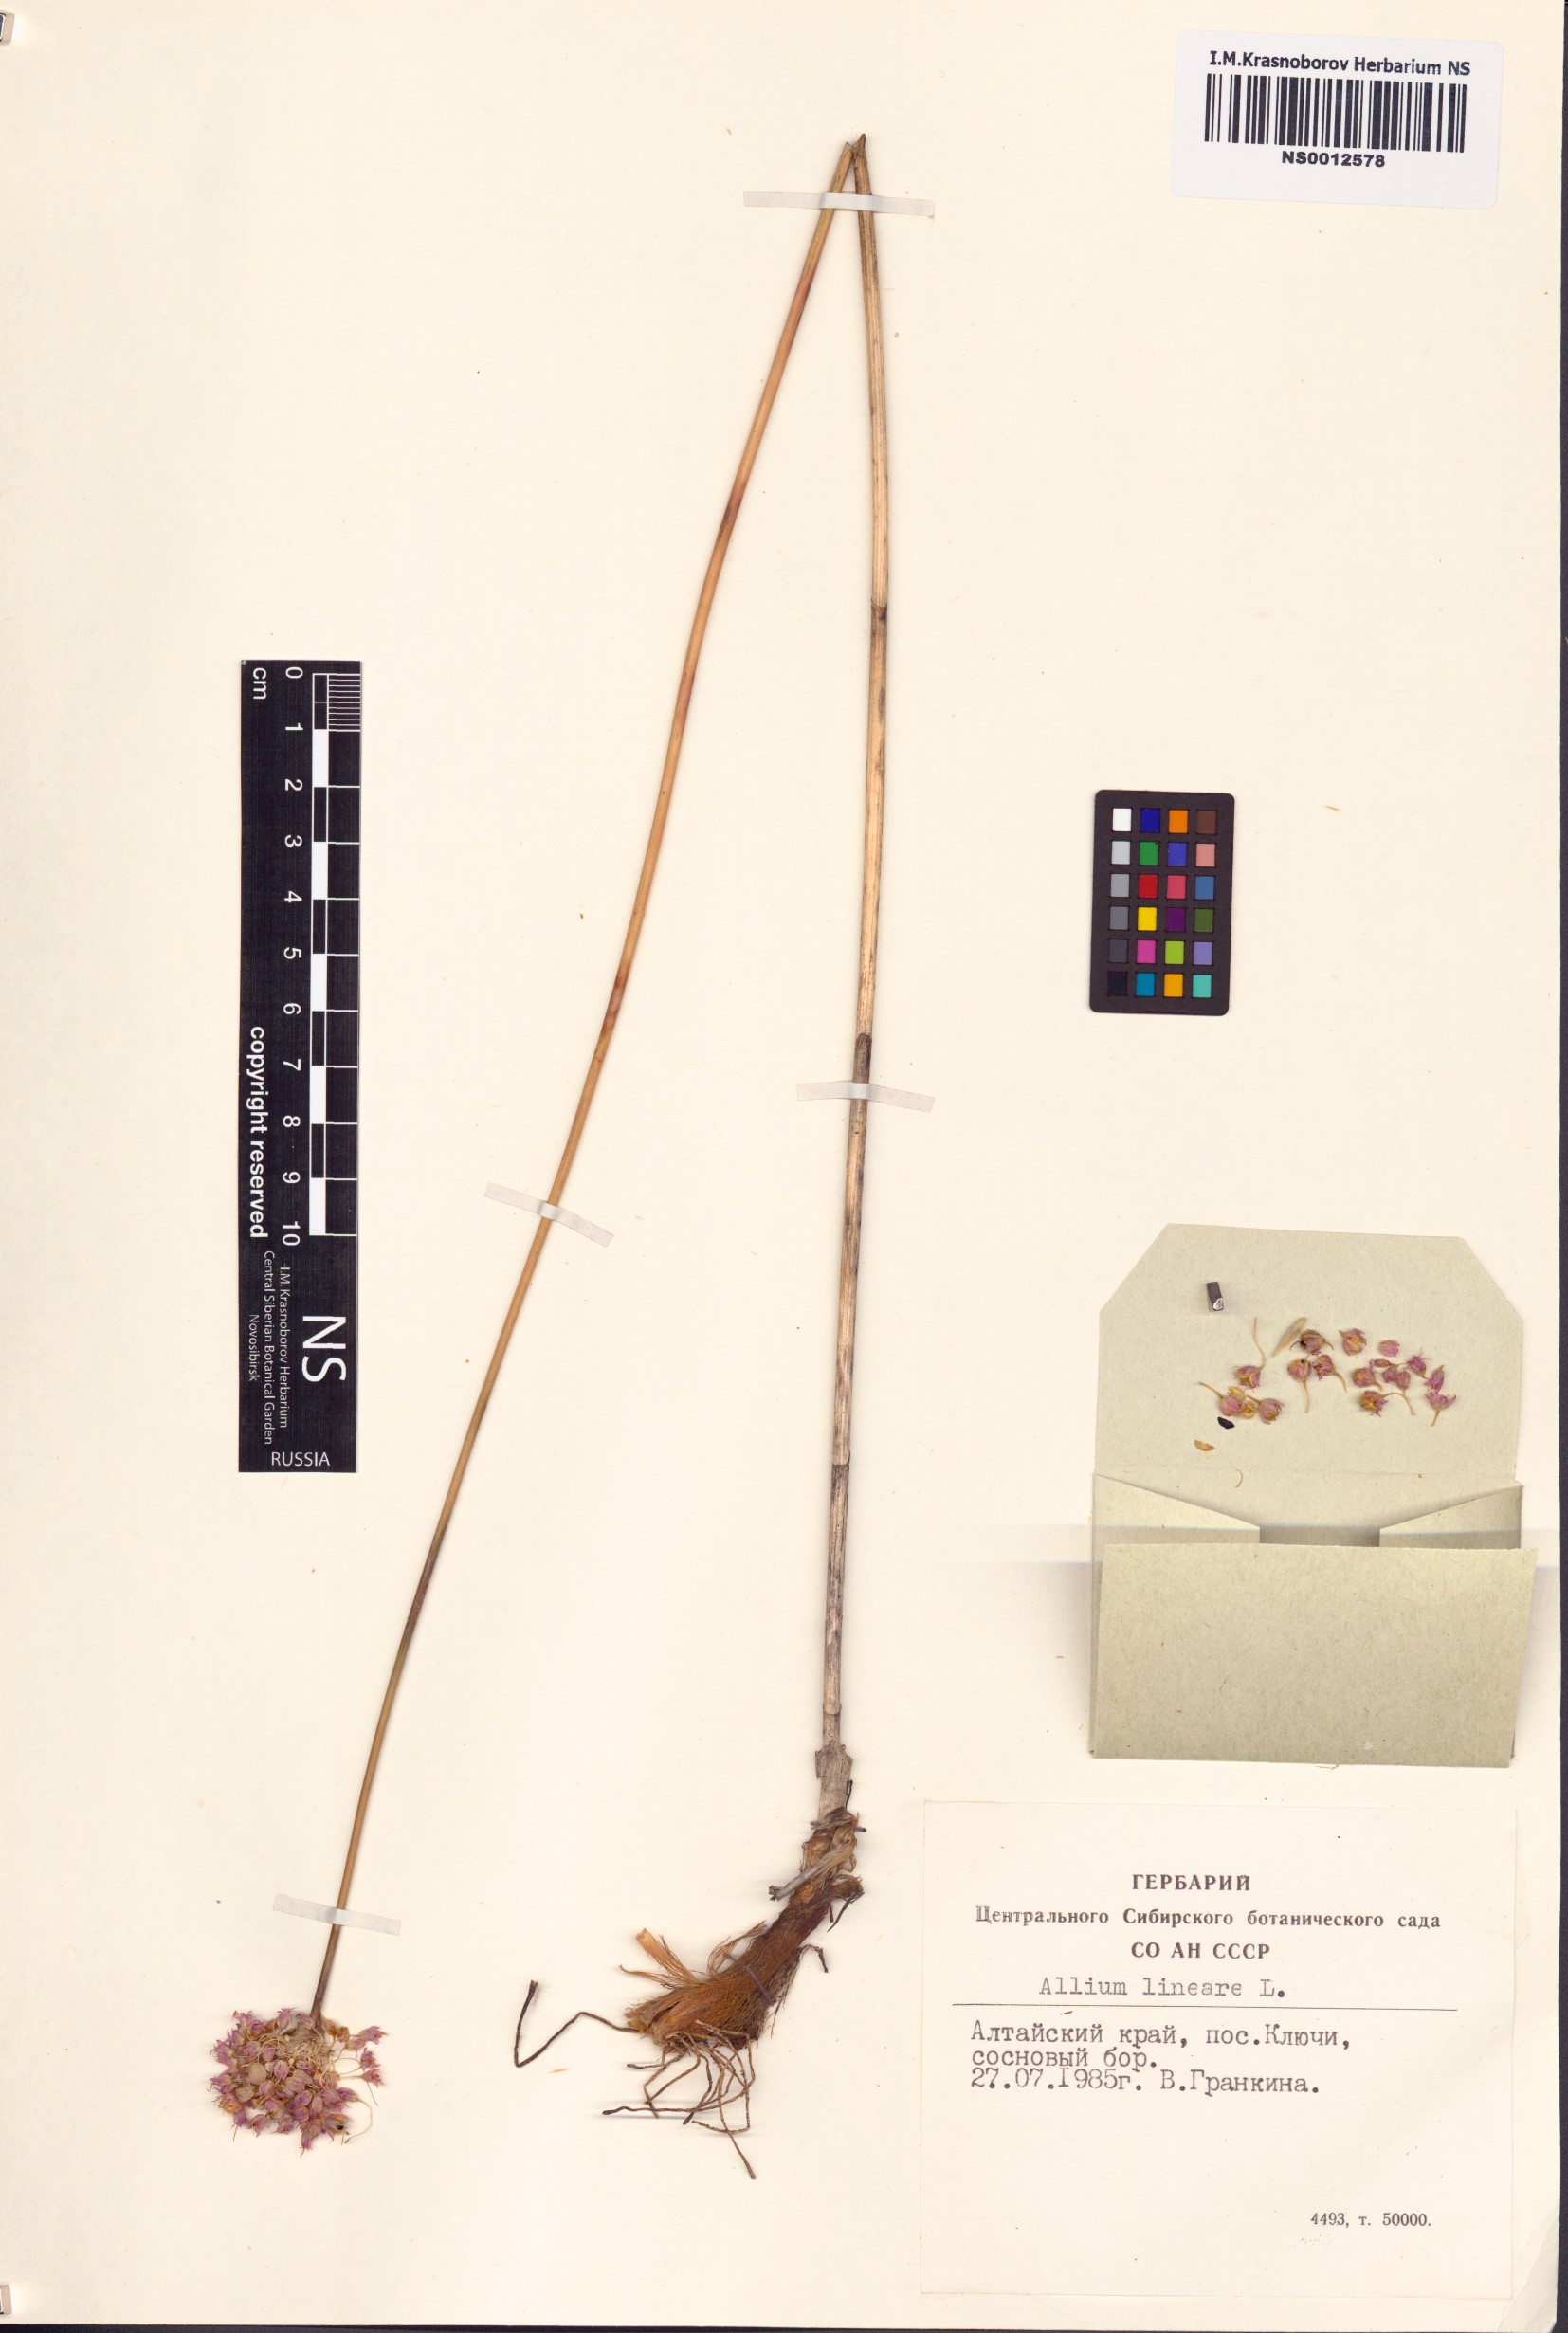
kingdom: Plantae
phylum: Tracheophyta
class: Liliopsida
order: Asparagales
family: Amaryllidaceae
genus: Allium
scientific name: Allium lineare
